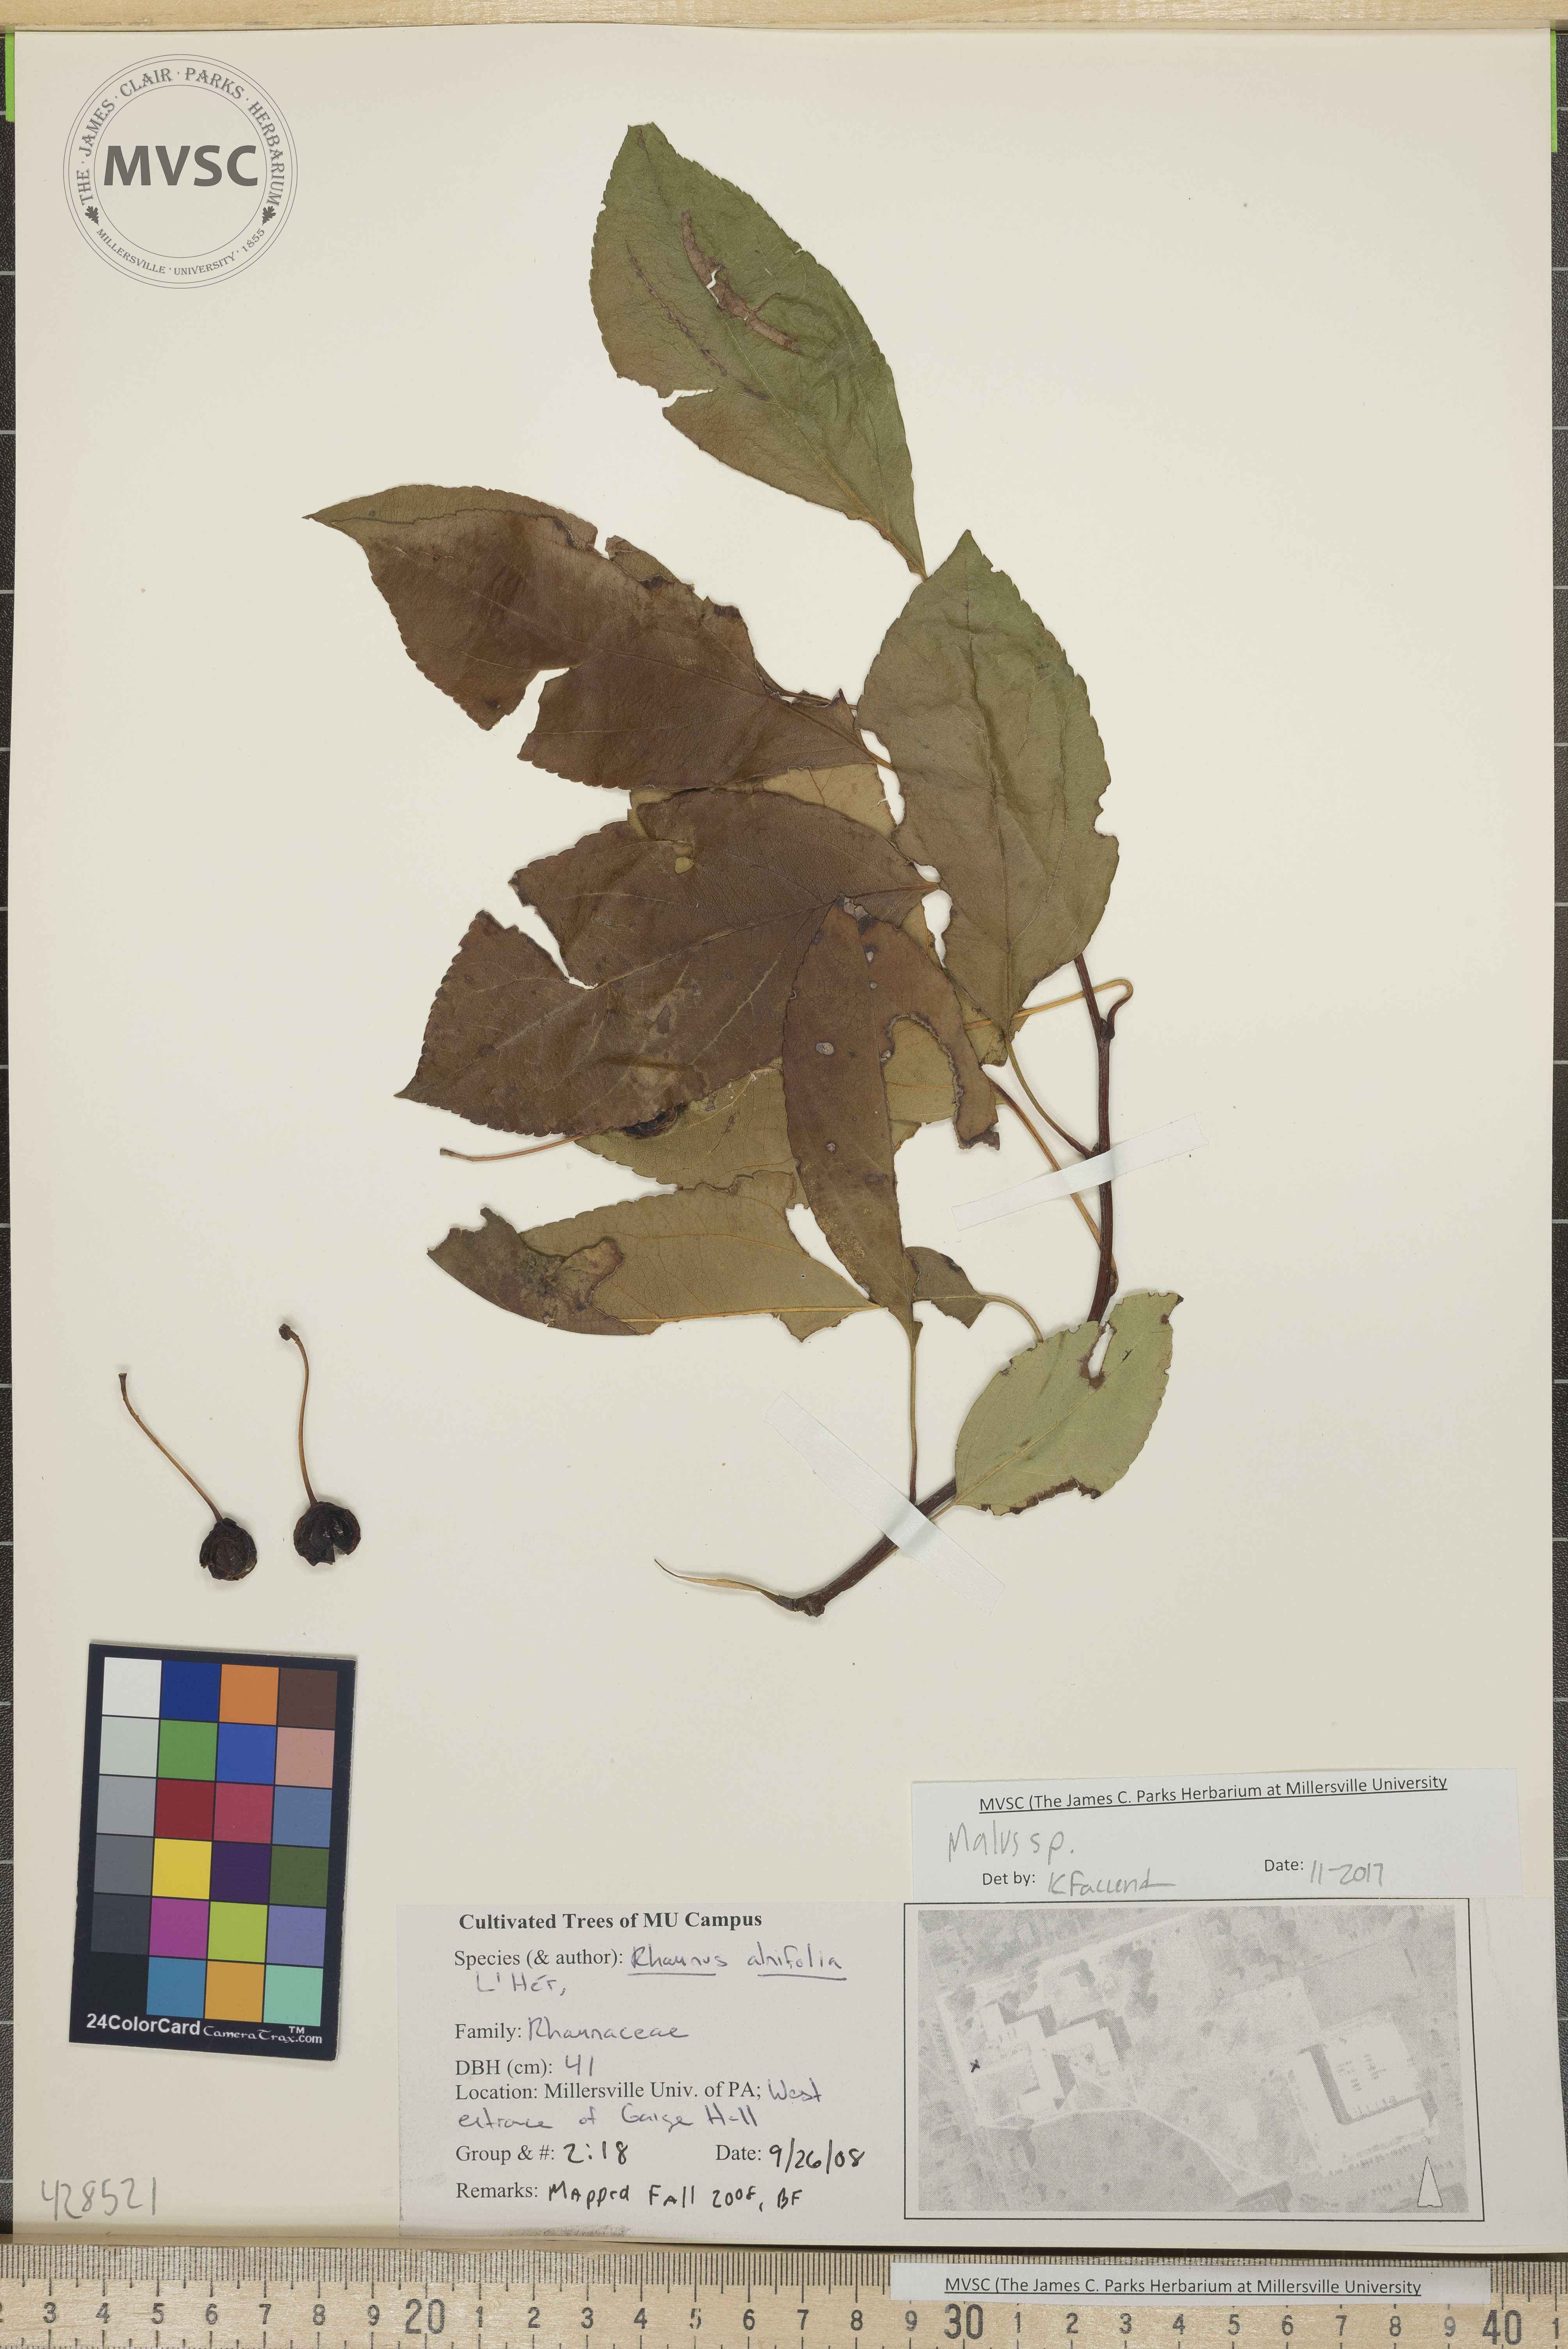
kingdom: Plantae
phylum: Tracheophyta
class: Magnoliopsida
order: Rosales
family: Rosaceae
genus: Malus
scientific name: Malus
